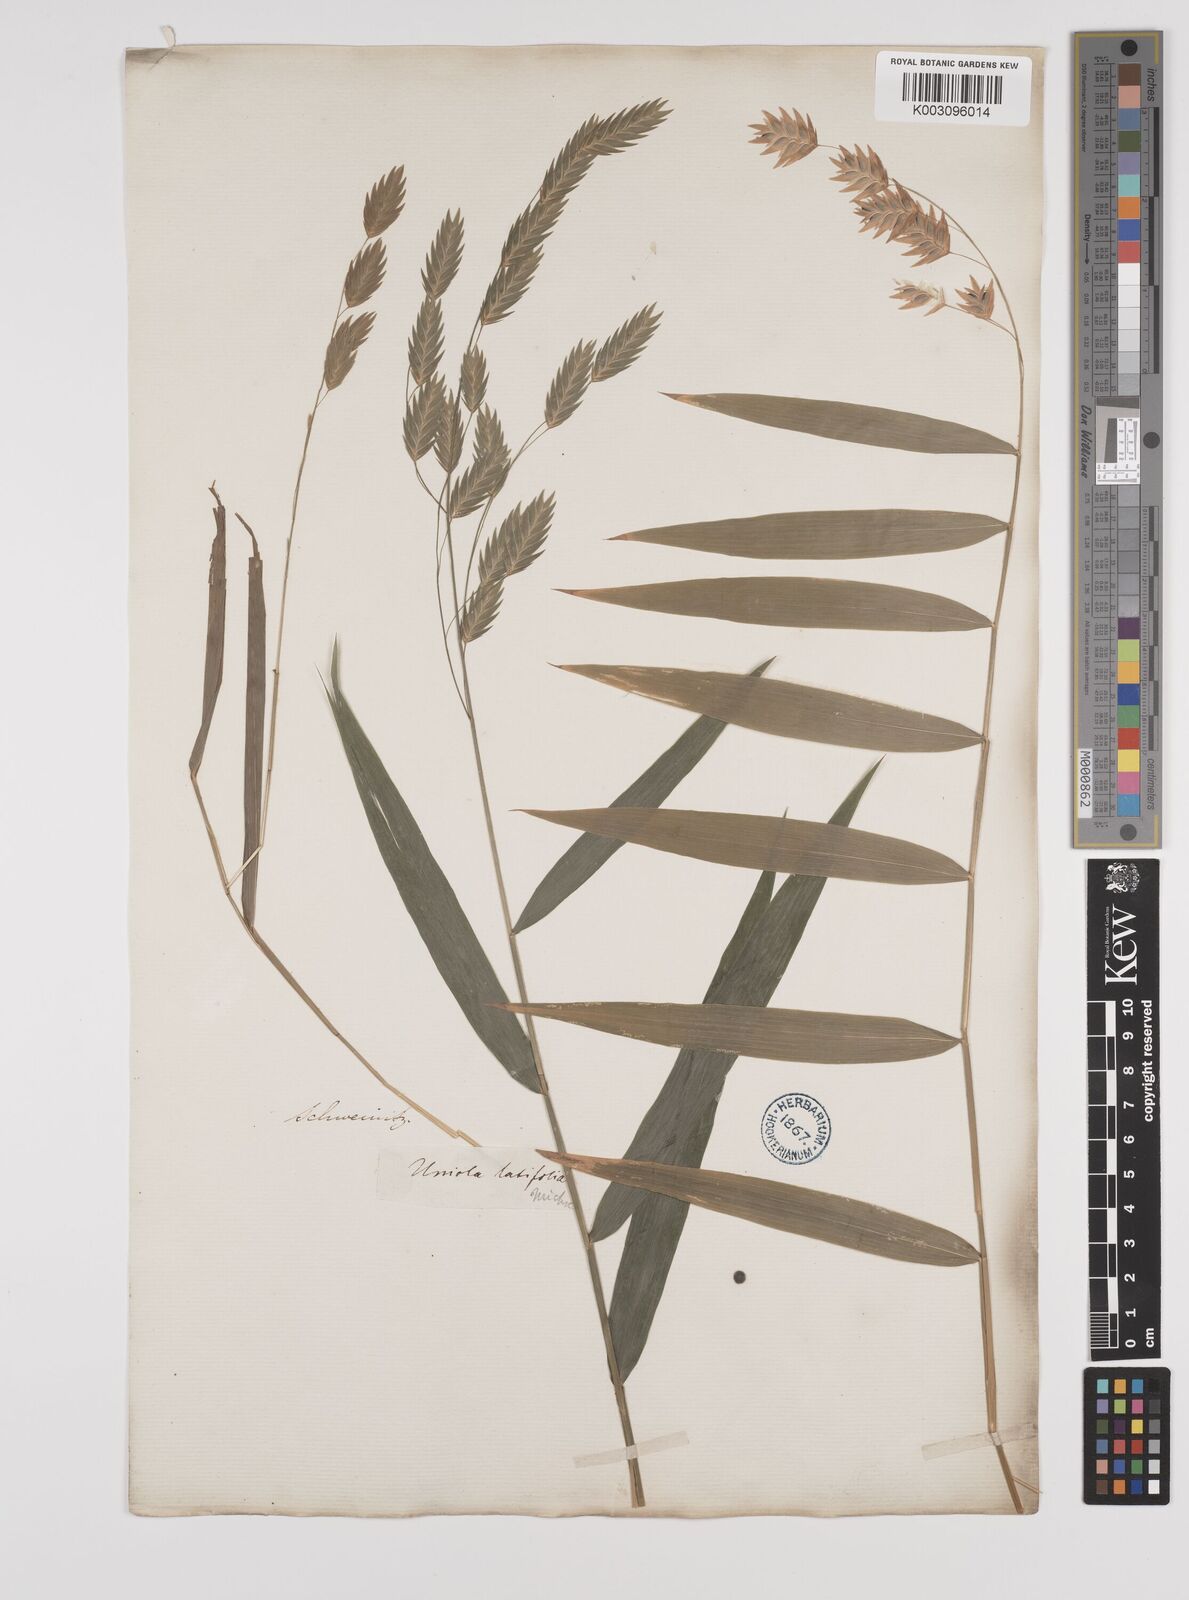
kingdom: Plantae
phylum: Tracheophyta
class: Liliopsida
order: Poales
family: Poaceae
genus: Chasmanthium
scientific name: Chasmanthium latifolium
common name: Broad-leaved chasmanthium
